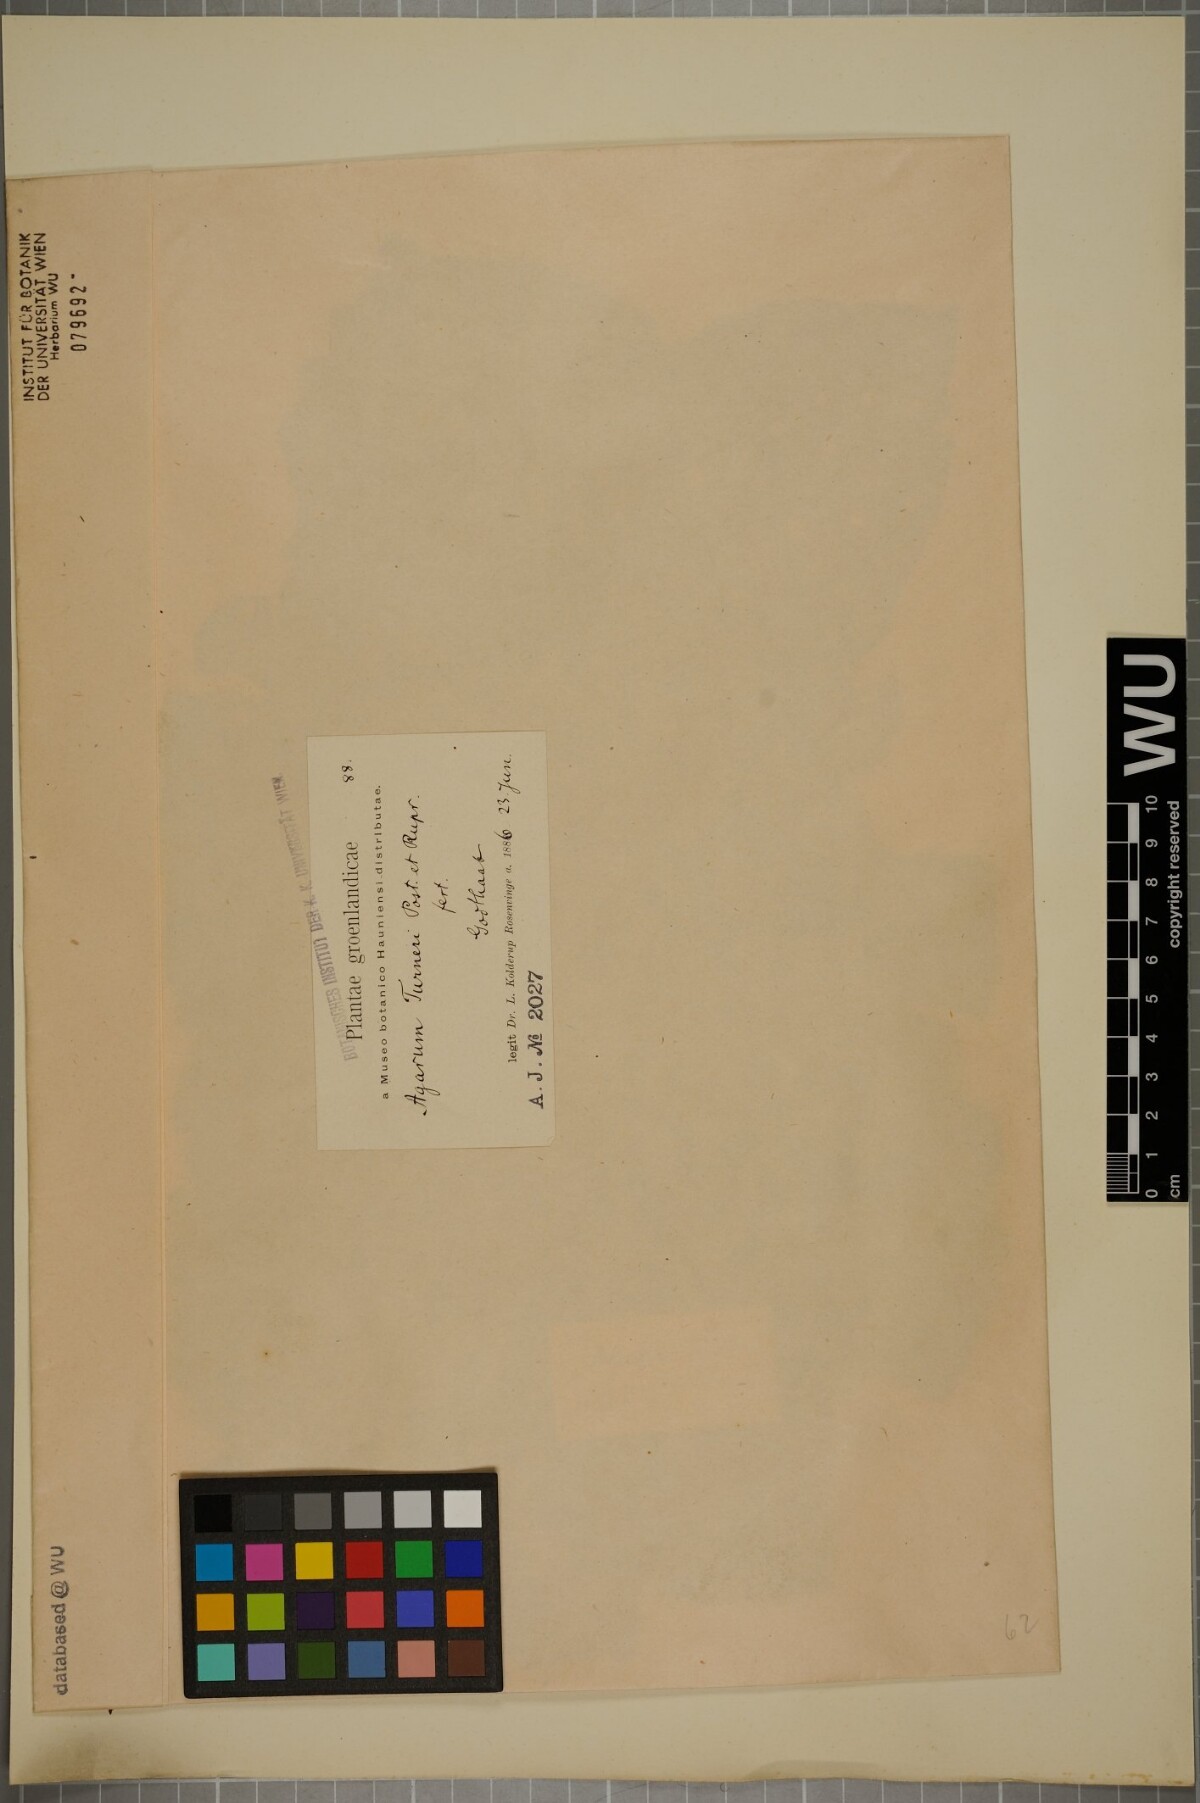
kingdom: Chromista
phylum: Ochrophyta
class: Phaeophyceae
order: Laminariales
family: Costariaceae
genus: Agarum
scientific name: Agarum turneri
